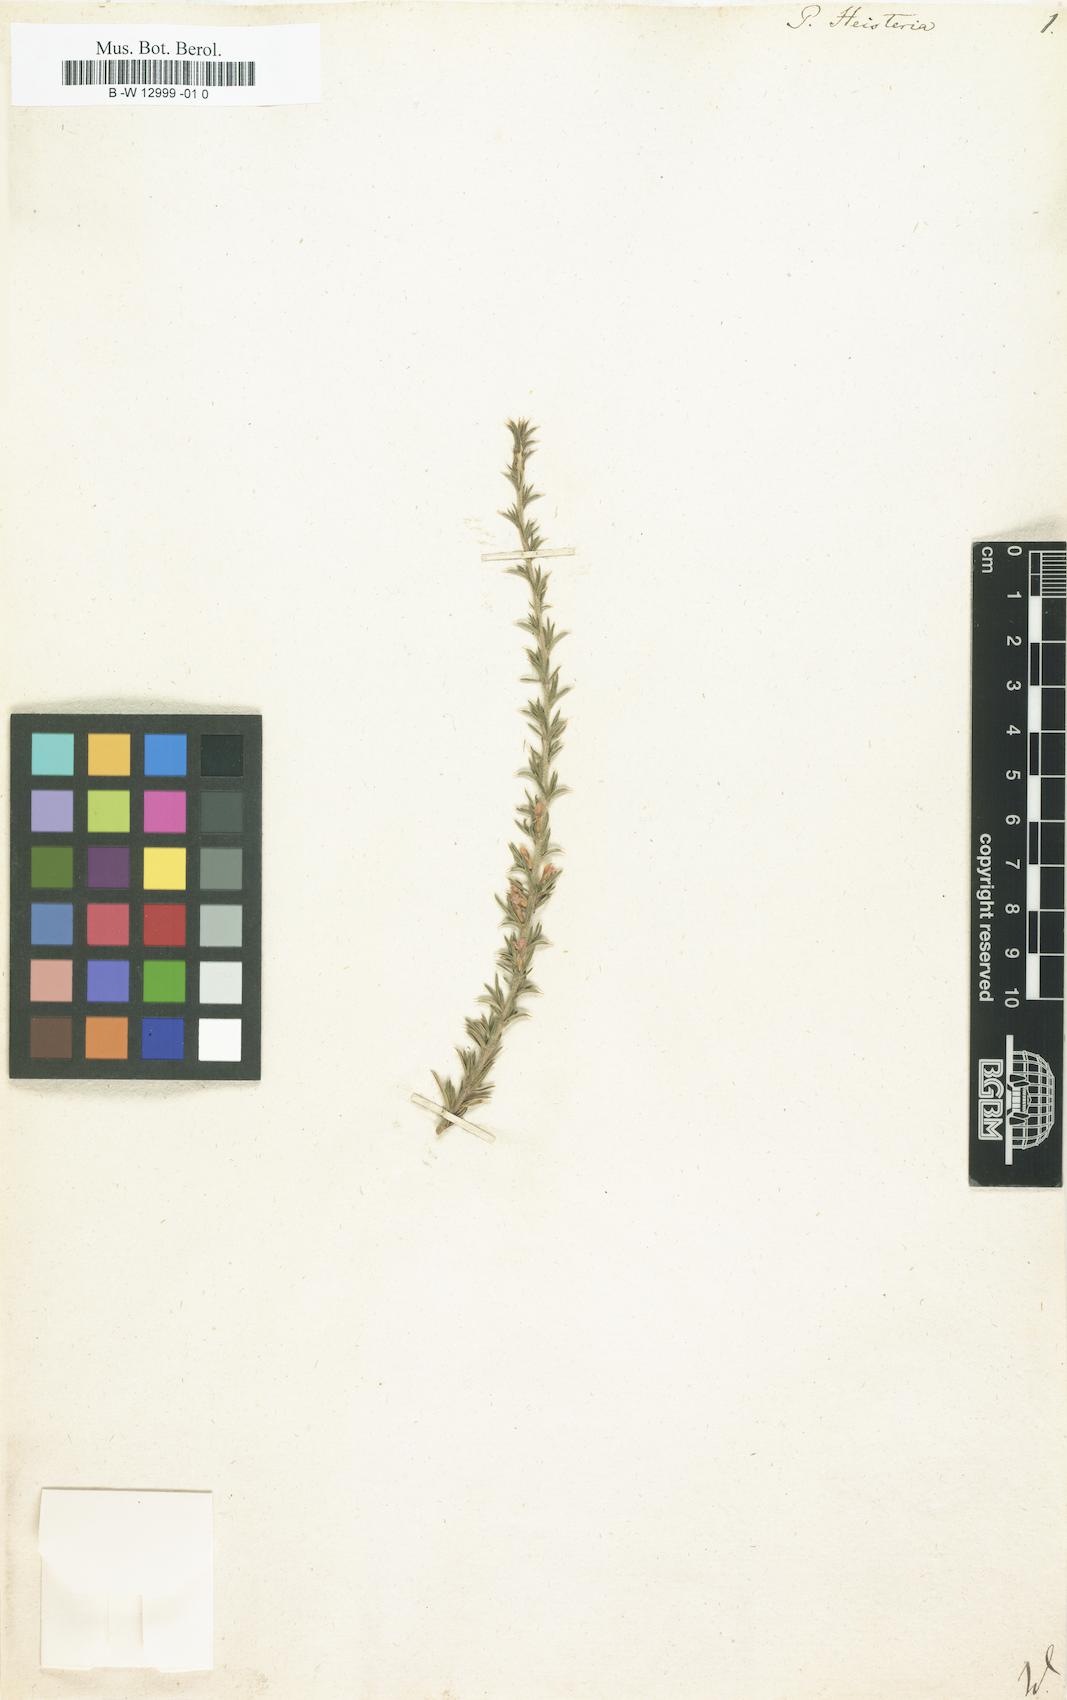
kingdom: Plantae
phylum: Tracheophyta
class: Magnoliopsida
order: Fabales
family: Polygalaceae
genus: Muraltia
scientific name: Muraltia heisteria
